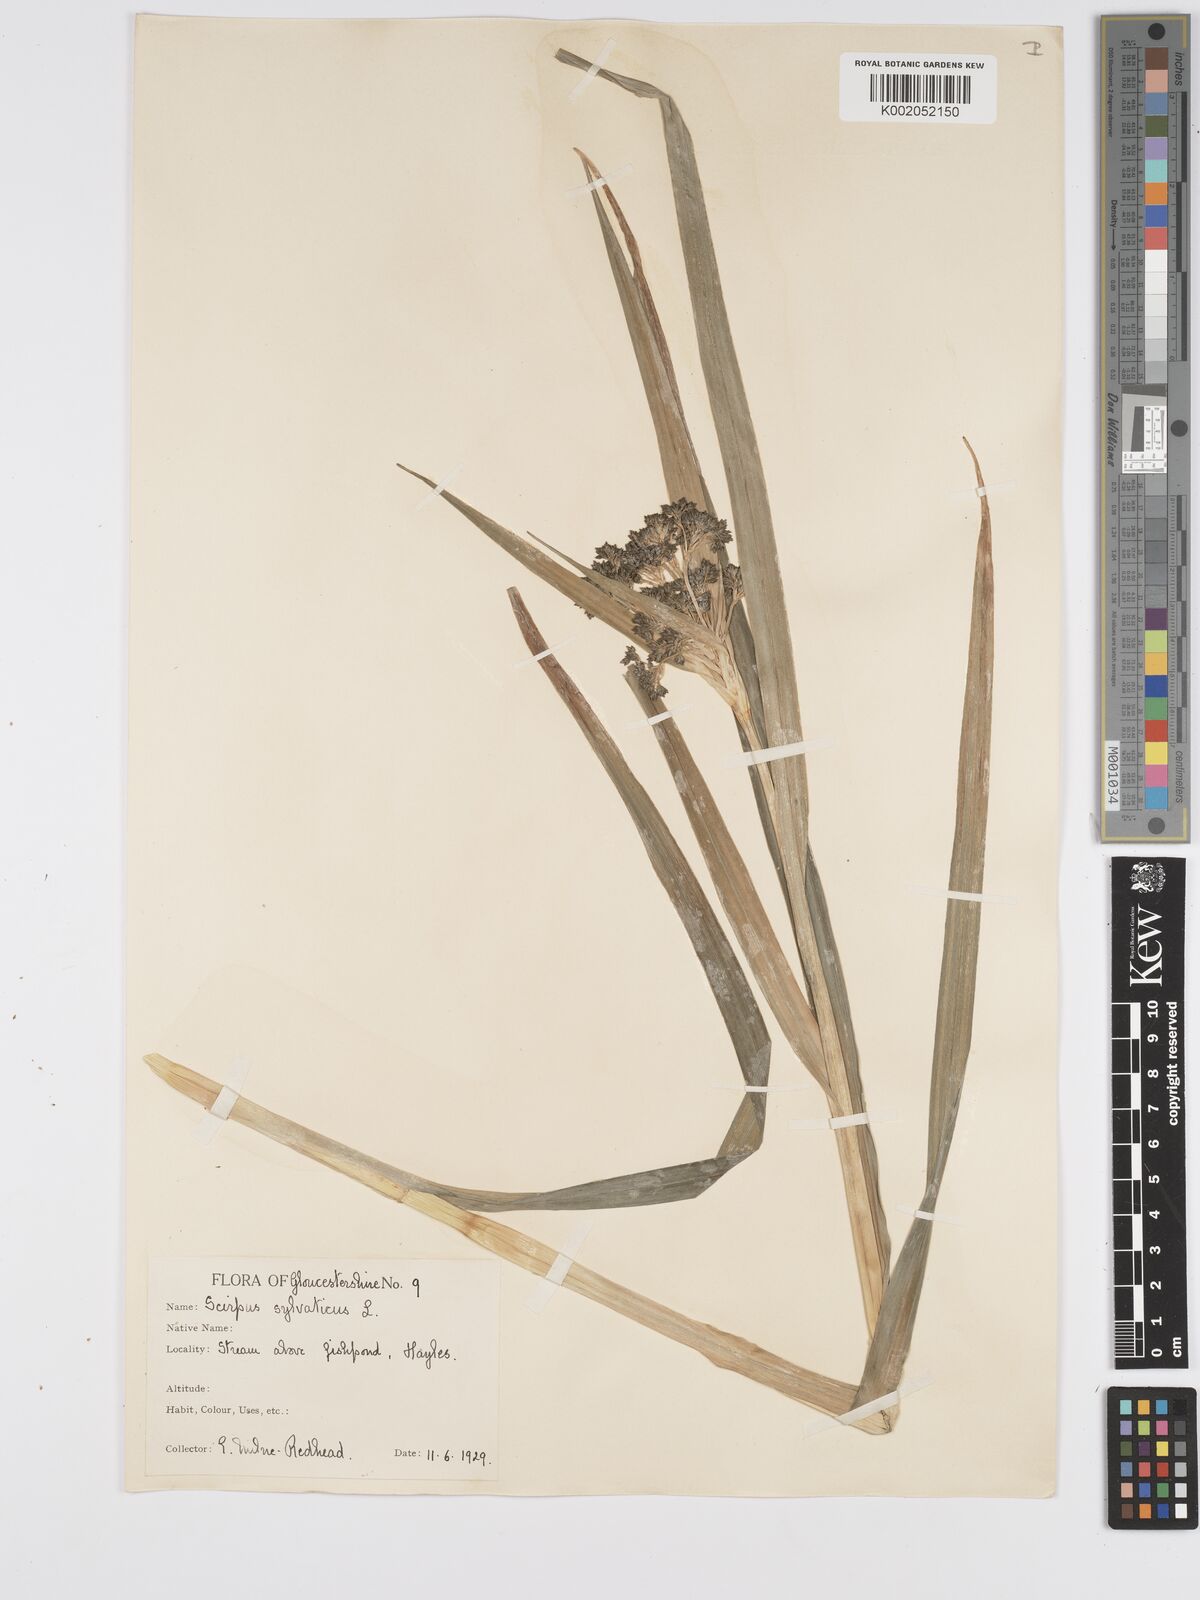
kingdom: Plantae
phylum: Tracheophyta
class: Liliopsida
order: Poales
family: Cyperaceae
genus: Scirpus
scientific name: Scirpus sylvaticus
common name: Wood club-rush
